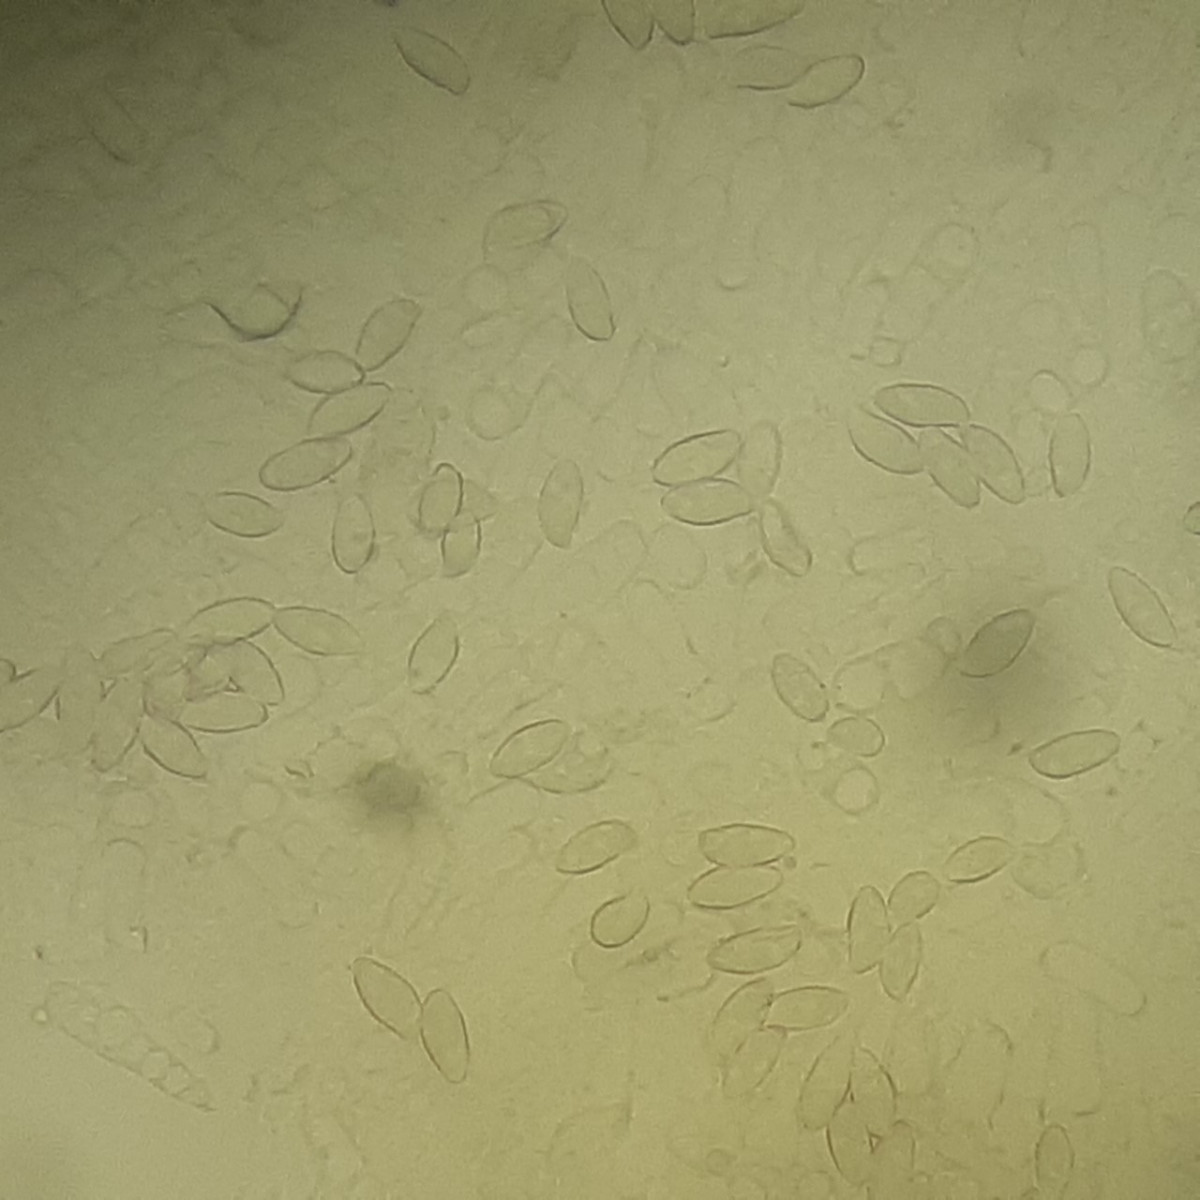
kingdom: Fungi
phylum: Basidiomycota
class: Agaricomycetes
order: Agaricales
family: Agaricaceae
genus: Lepiota
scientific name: Lepiota erminea
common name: hvid parasolhat
